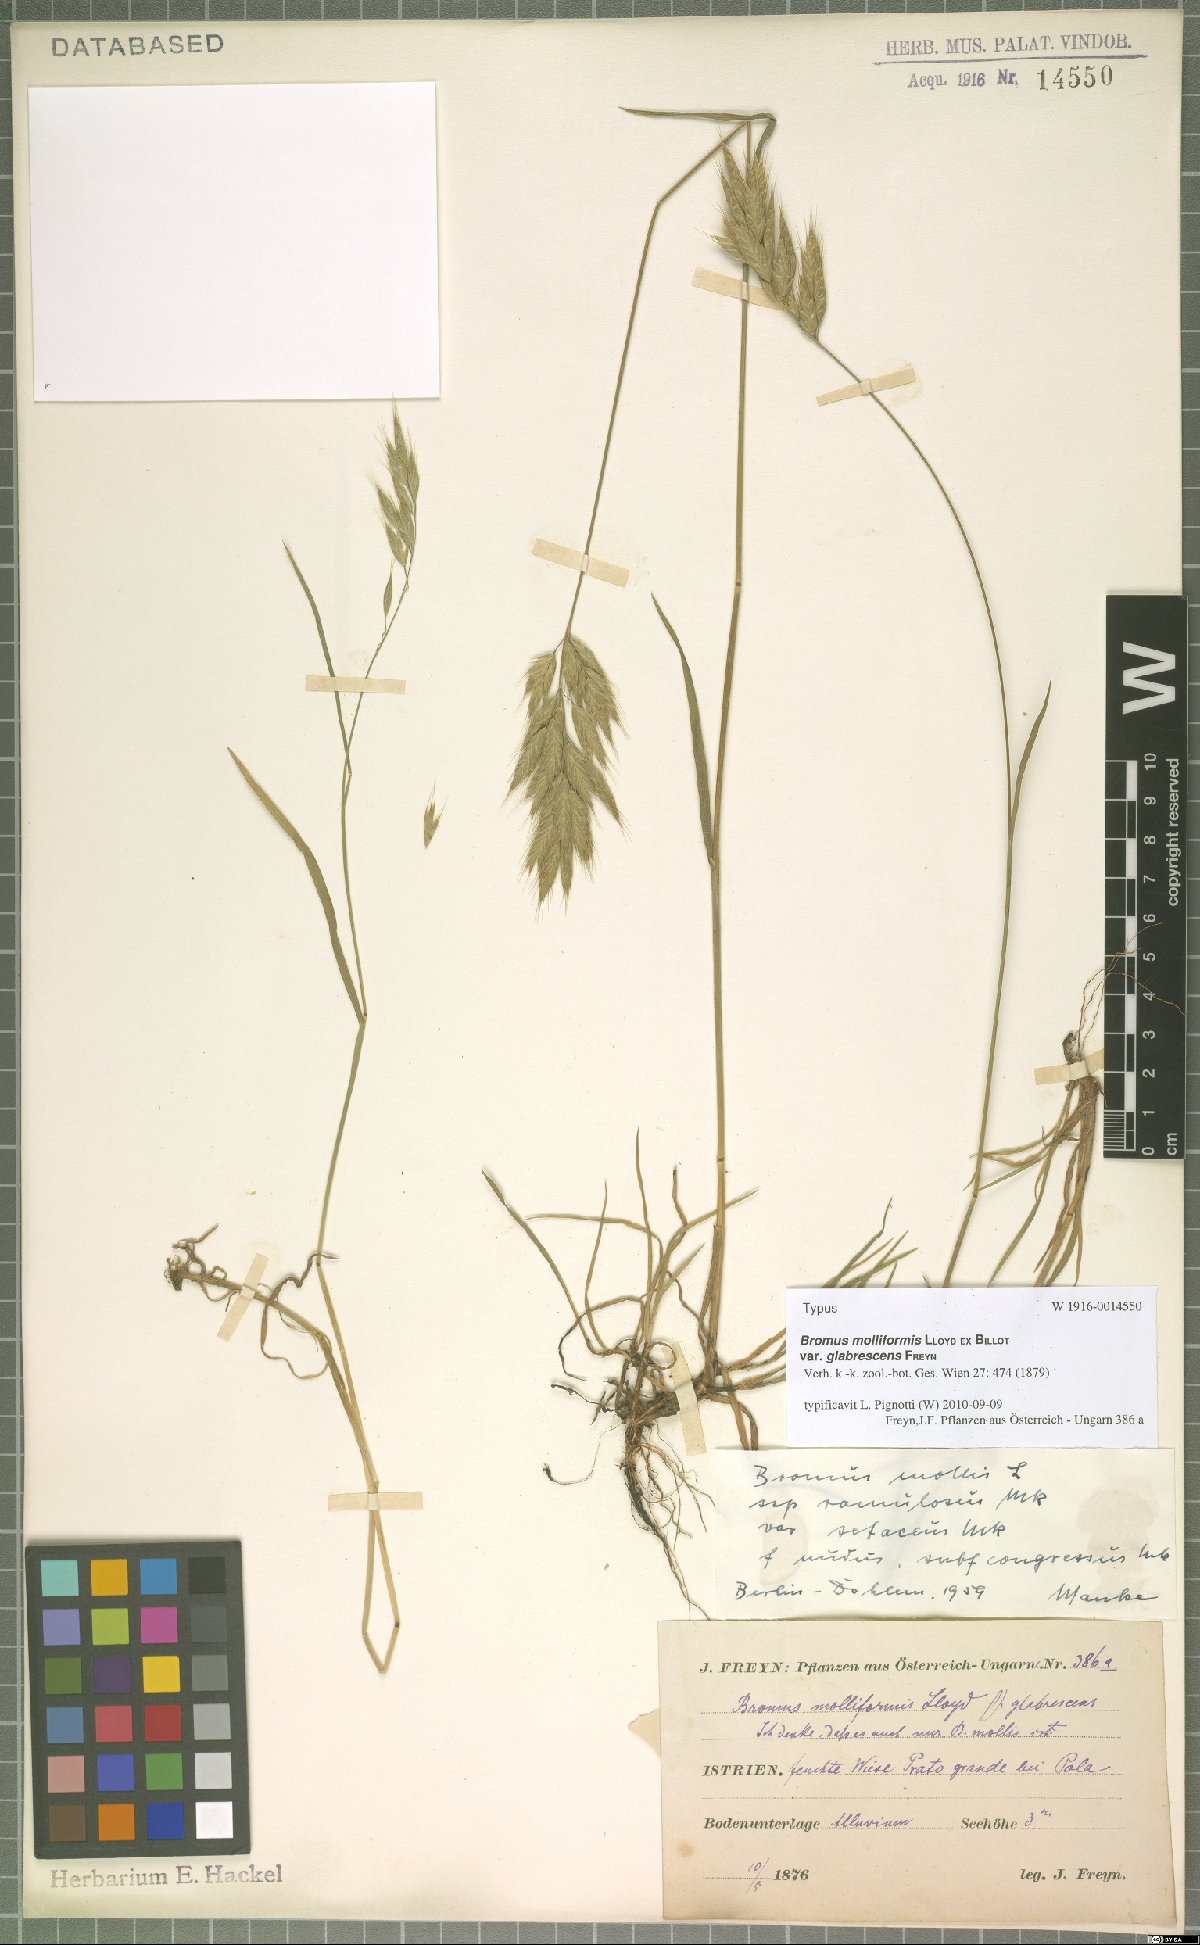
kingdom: Plantae
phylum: Tracheophyta
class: Liliopsida
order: Poales
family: Poaceae
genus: Bromus
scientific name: Bromus hordeaceus
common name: Soft brome
